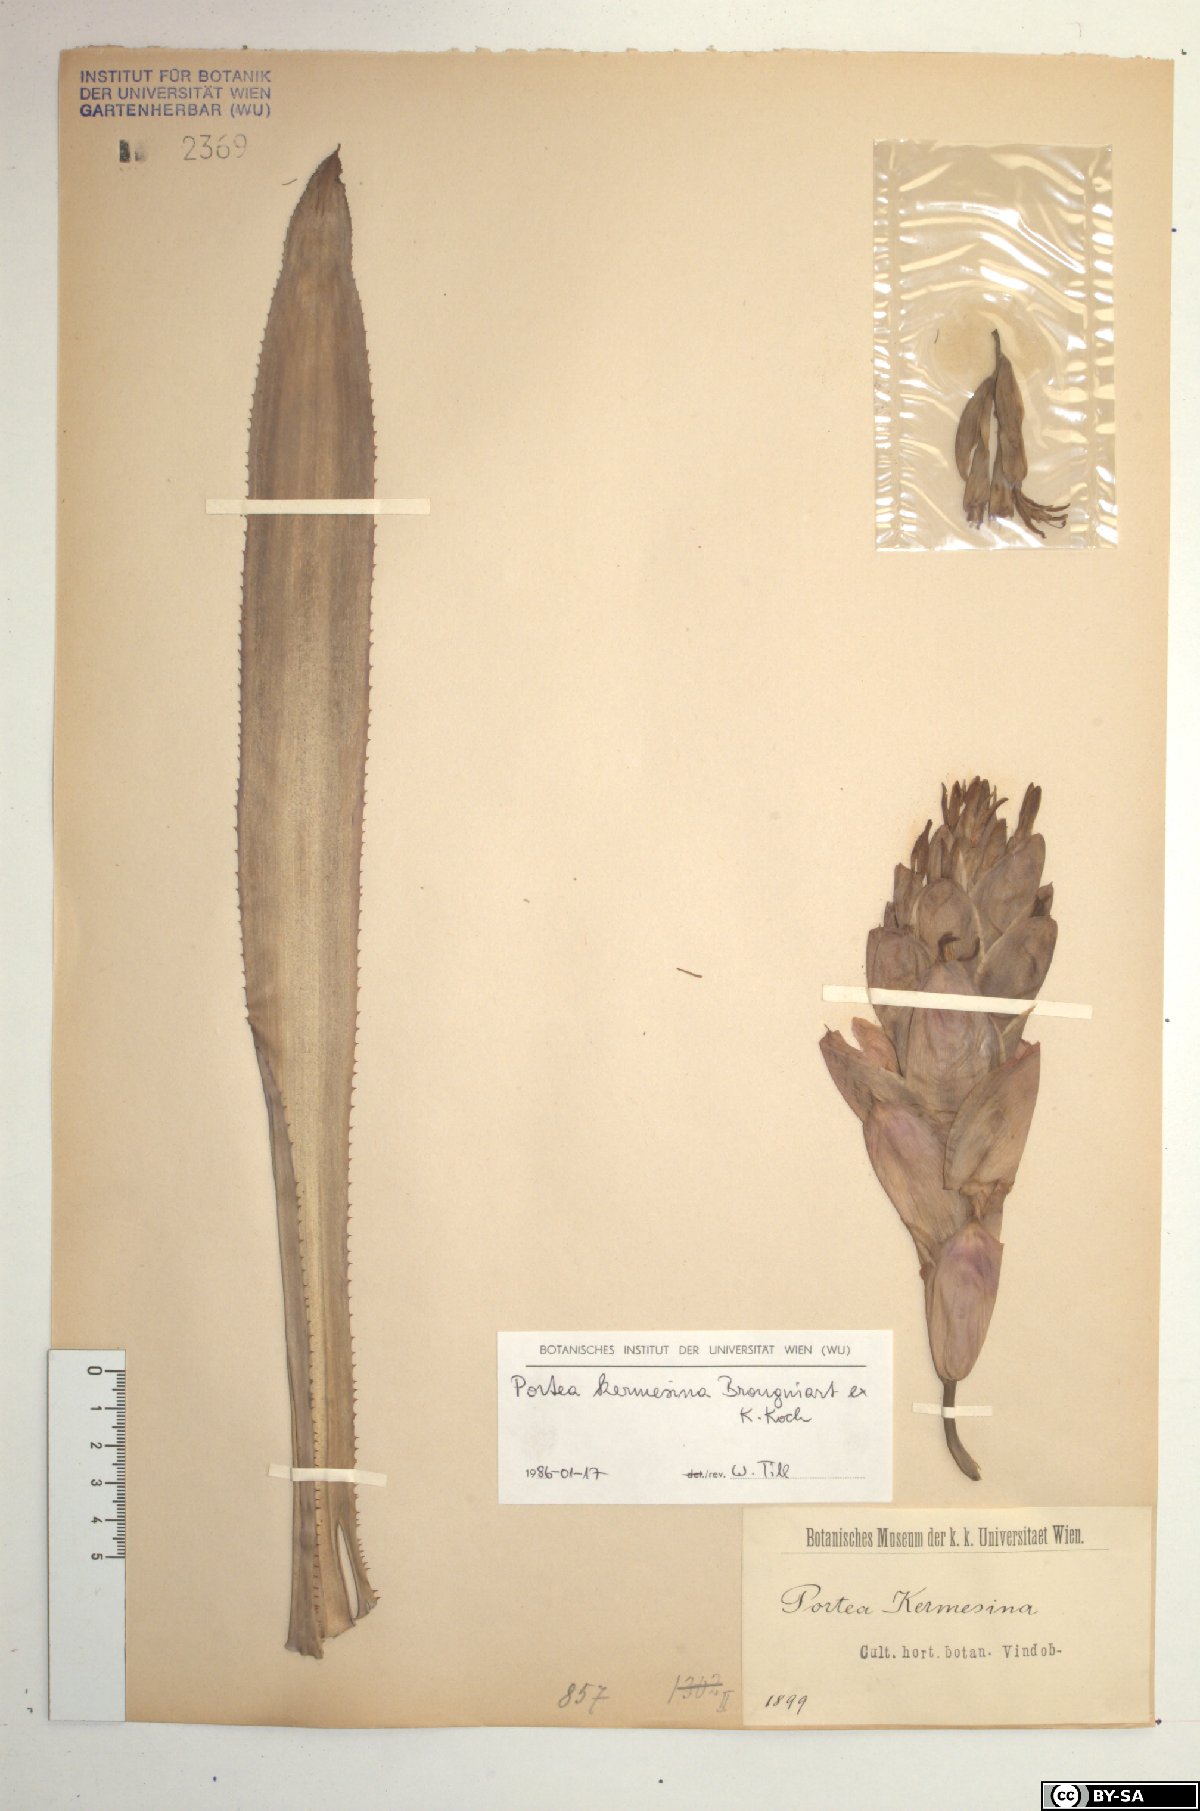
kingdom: Plantae
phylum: Tracheophyta
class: Liliopsida
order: Poales
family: Bromeliaceae
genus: Portea
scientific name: Portea kermesina
